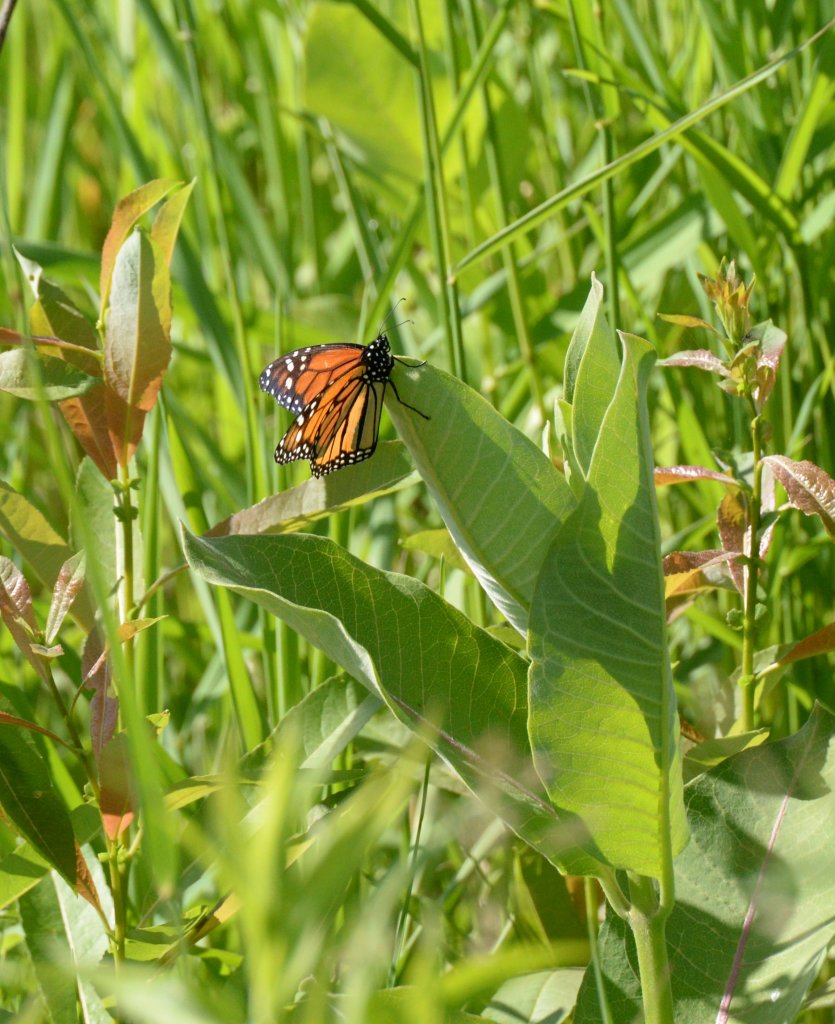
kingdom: Animalia
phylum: Arthropoda
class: Insecta
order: Lepidoptera
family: Nymphalidae
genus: Danaus
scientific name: Danaus plexippus
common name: Monarch
